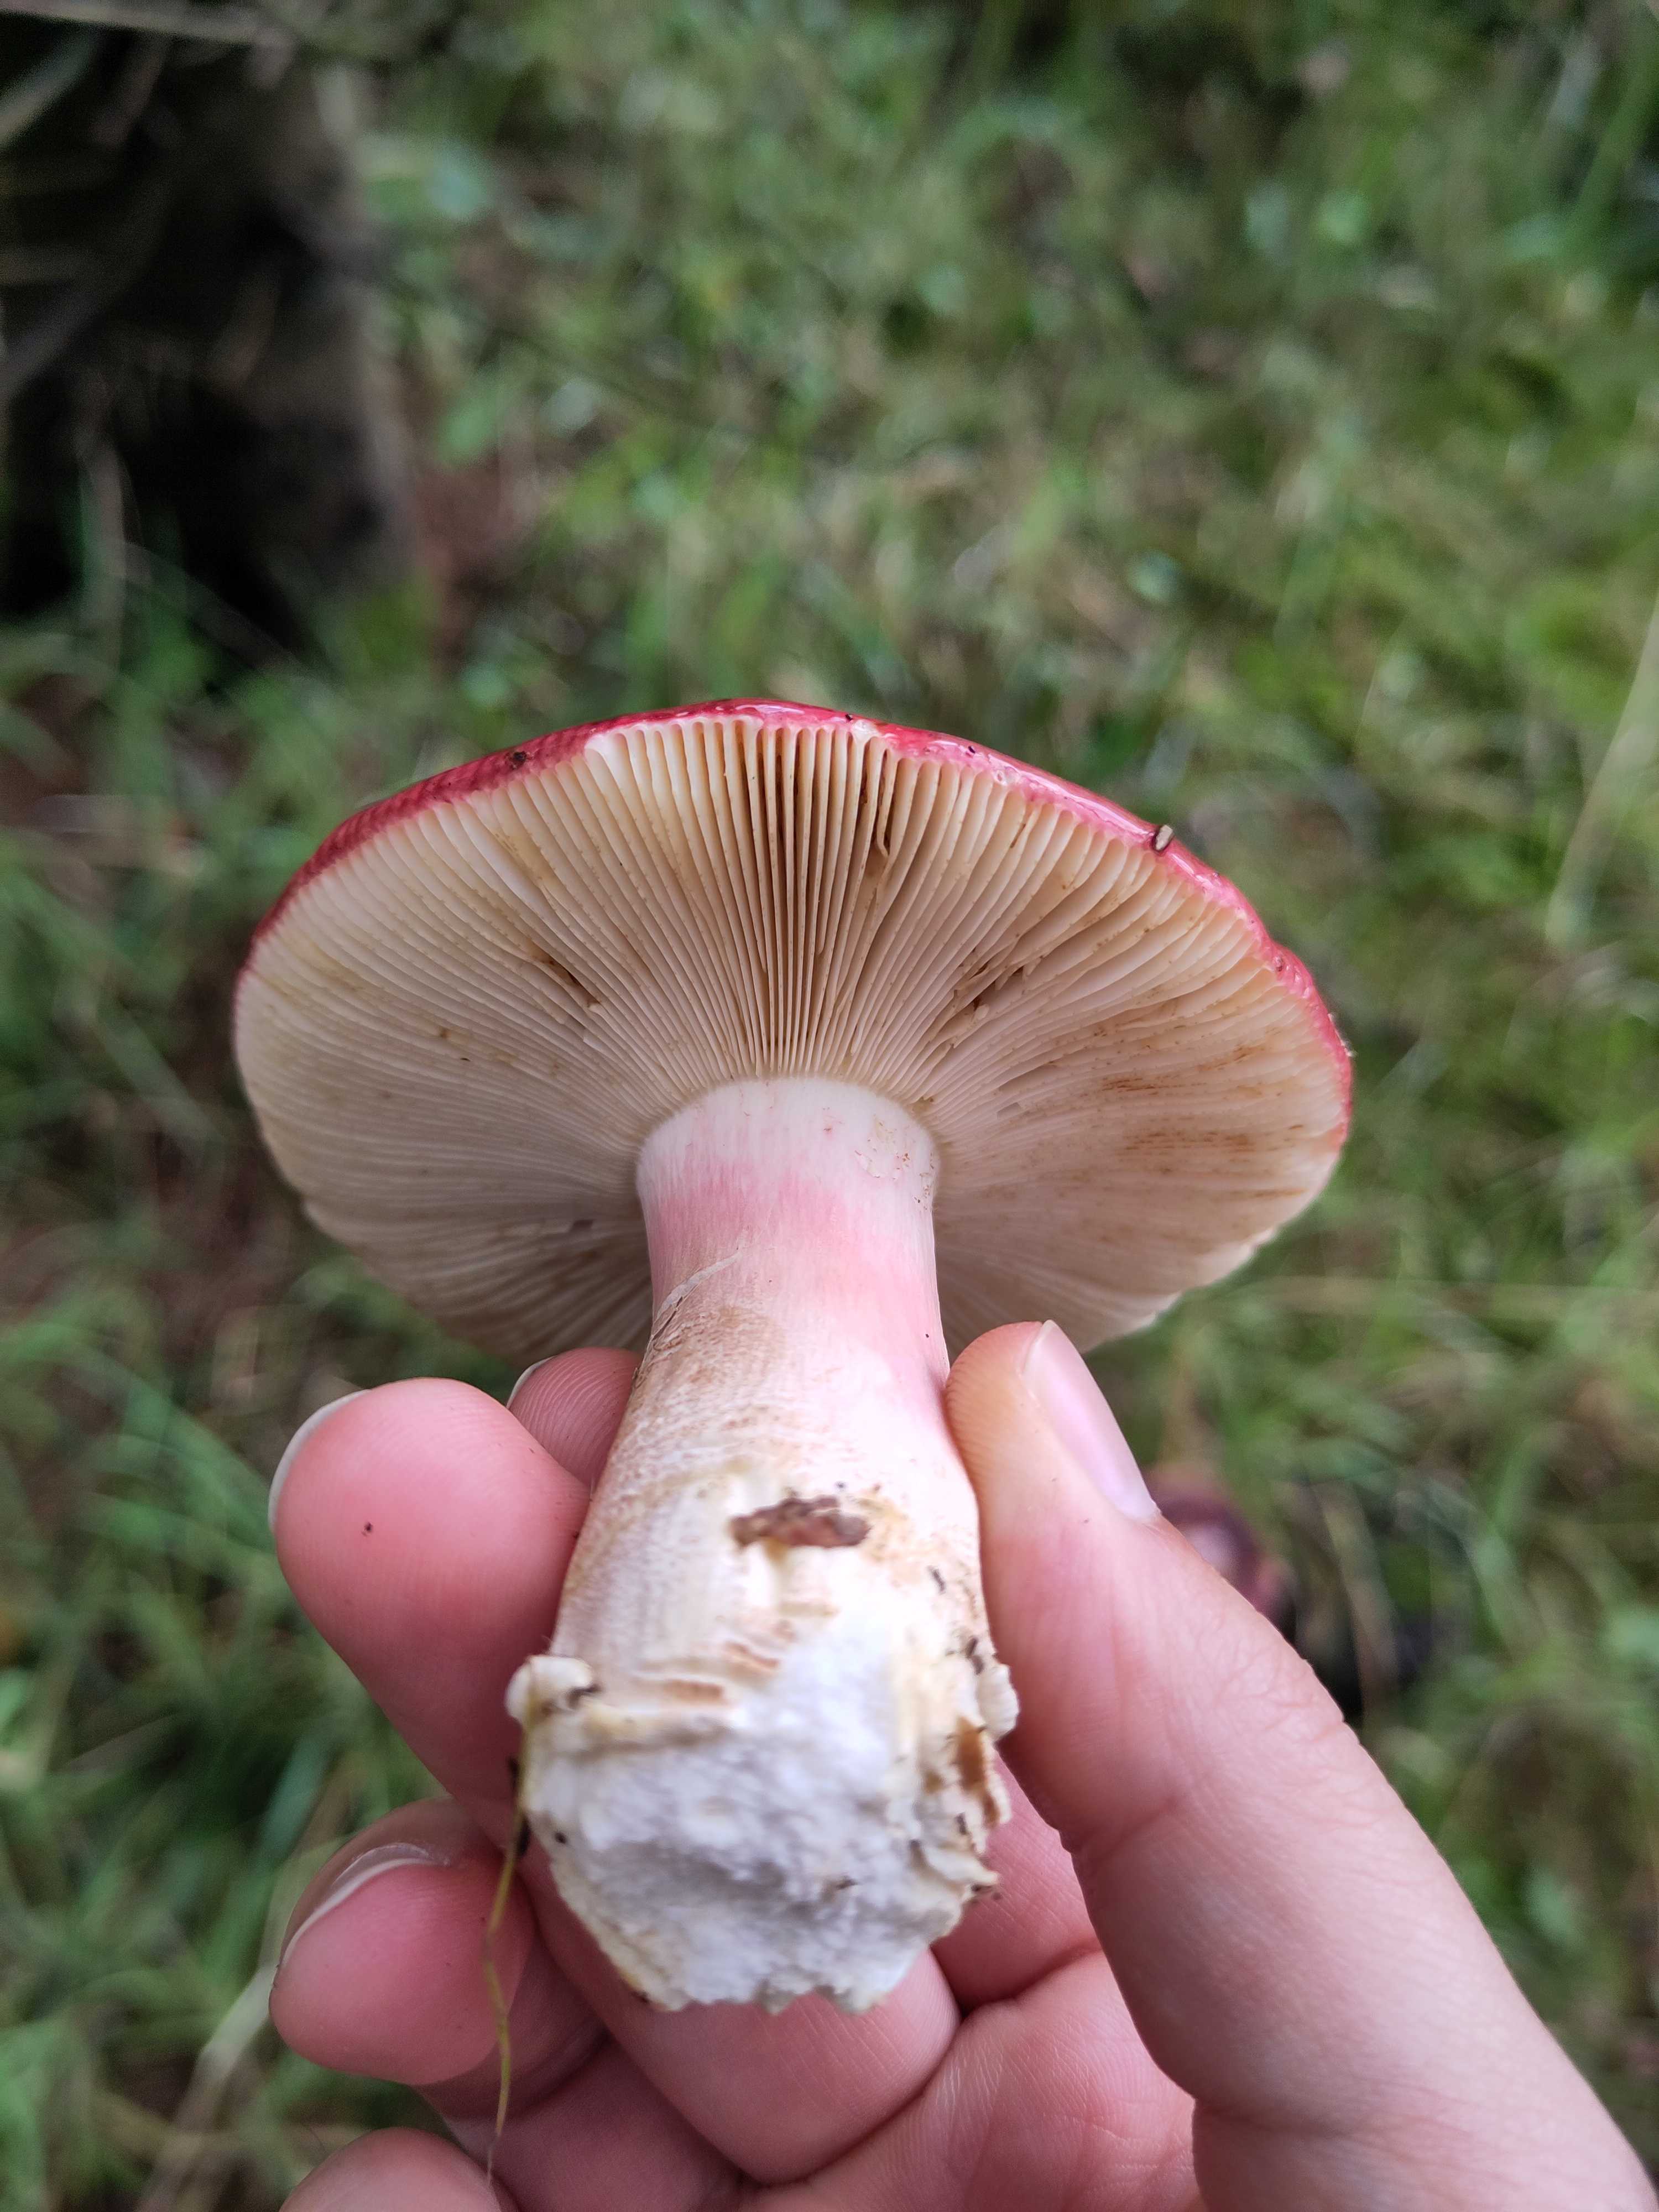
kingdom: Fungi
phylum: Basidiomycota
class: Agaricomycetes
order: Russulales
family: Russulaceae
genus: Russula
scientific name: Russula xerampelina
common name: hummer-skørhat
